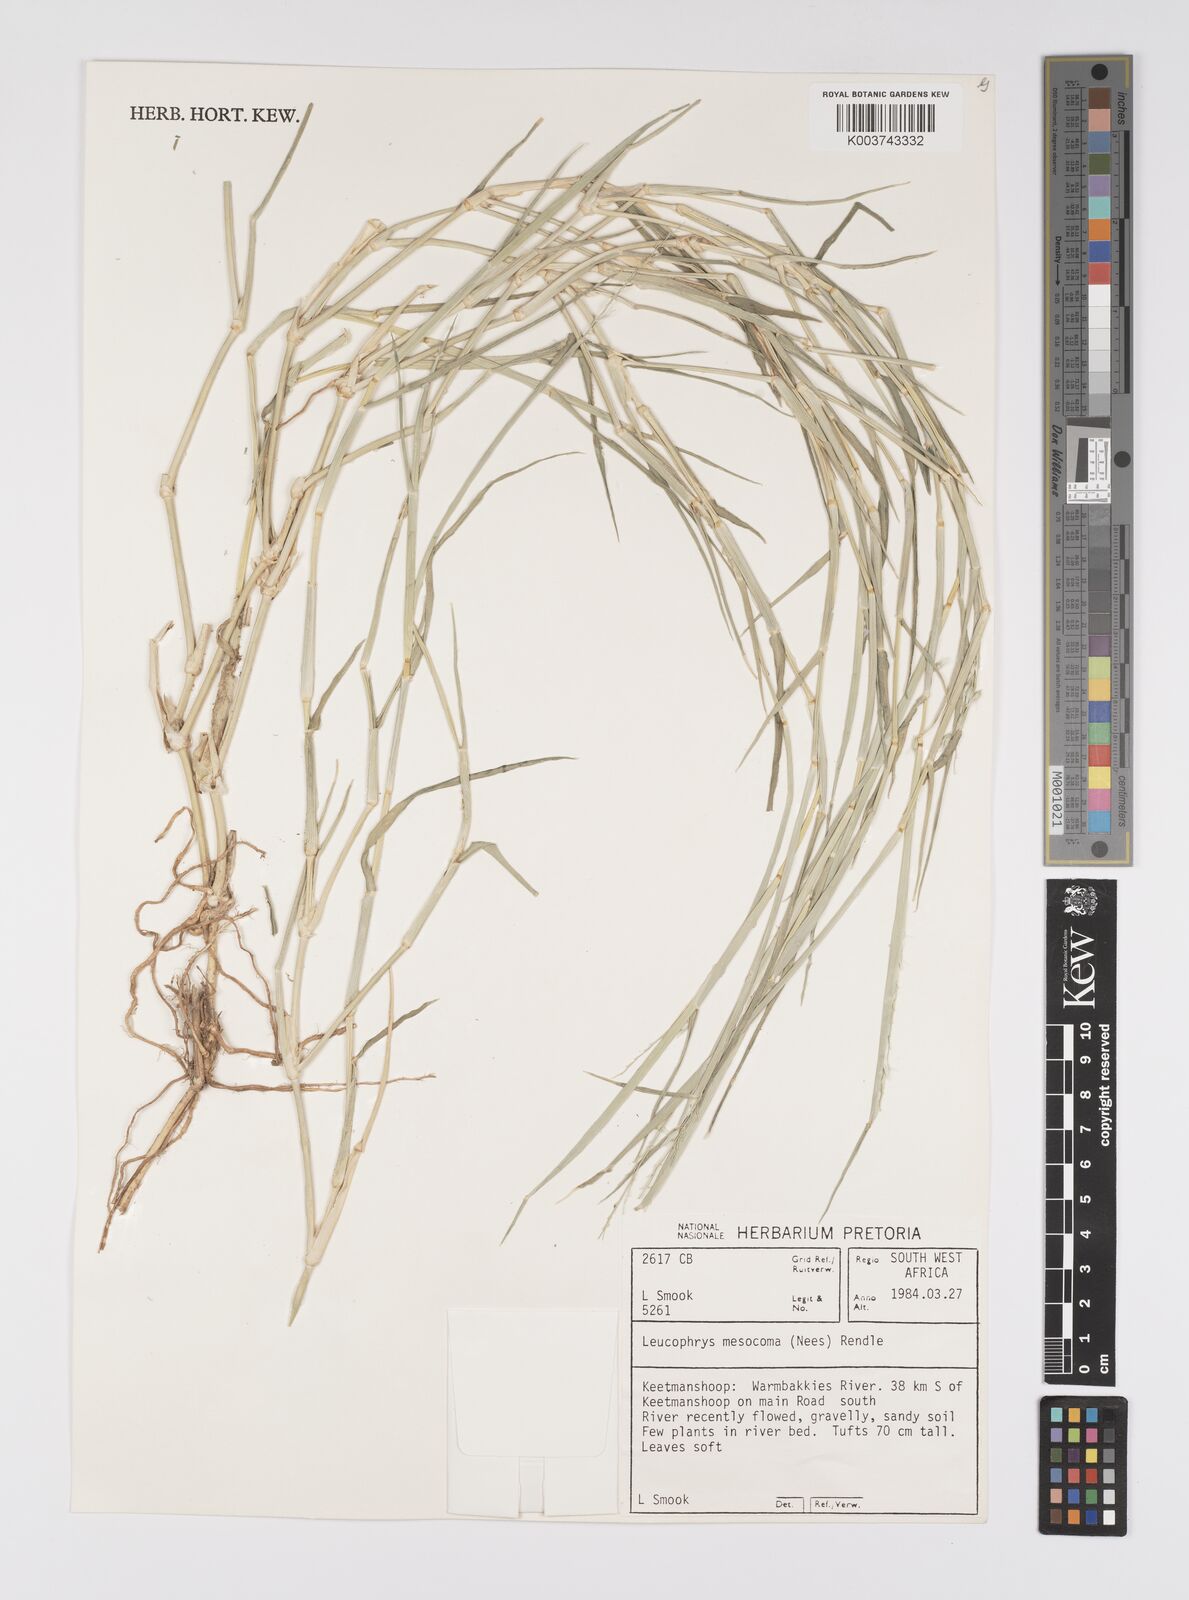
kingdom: Plantae
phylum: Tracheophyta
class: Liliopsida
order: Poales
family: Poaceae
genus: Urochloa
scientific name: Urochloa Brachiaria mesocoma
